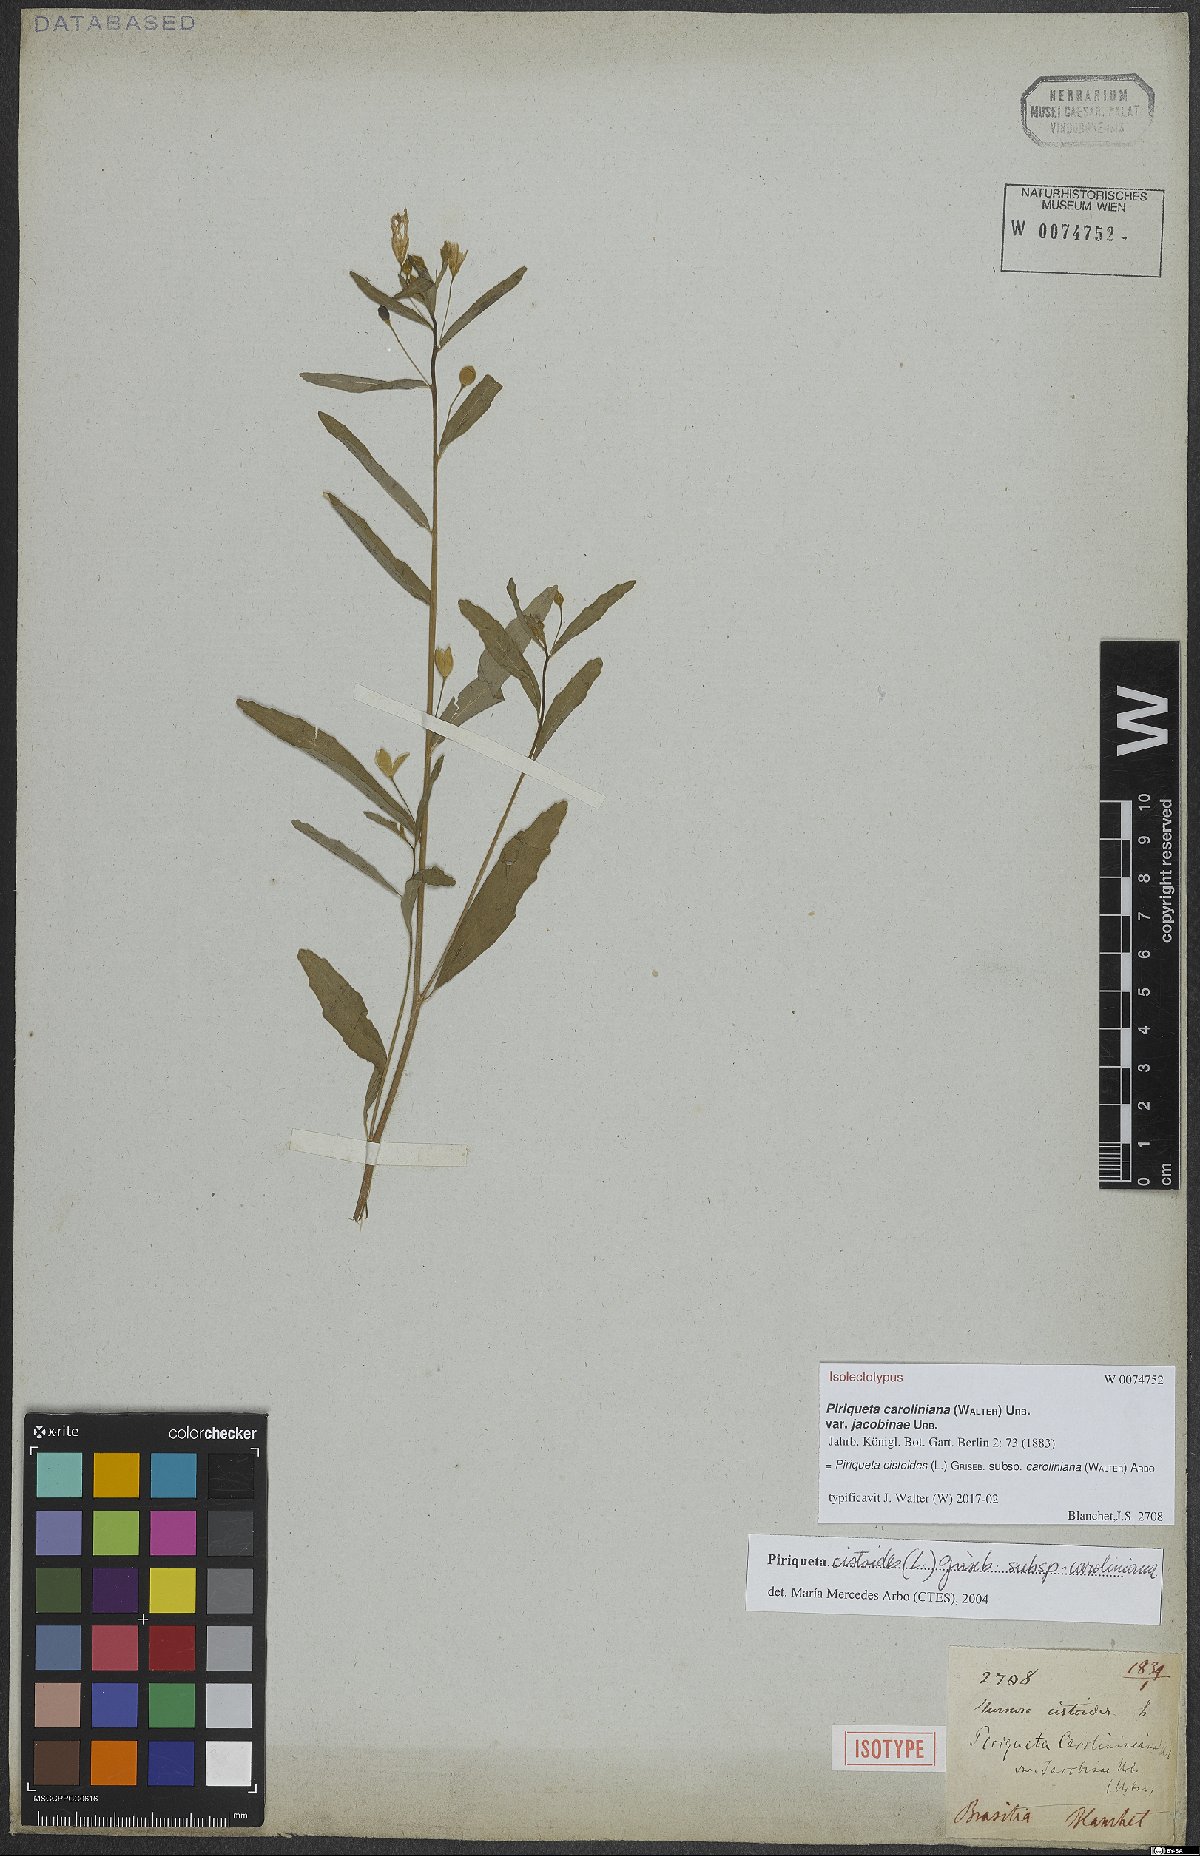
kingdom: Plantae
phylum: Tracheophyta
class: Magnoliopsida
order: Malpighiales
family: Turneraceae
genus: Piriqueta
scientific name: Piriqueta cistoides
